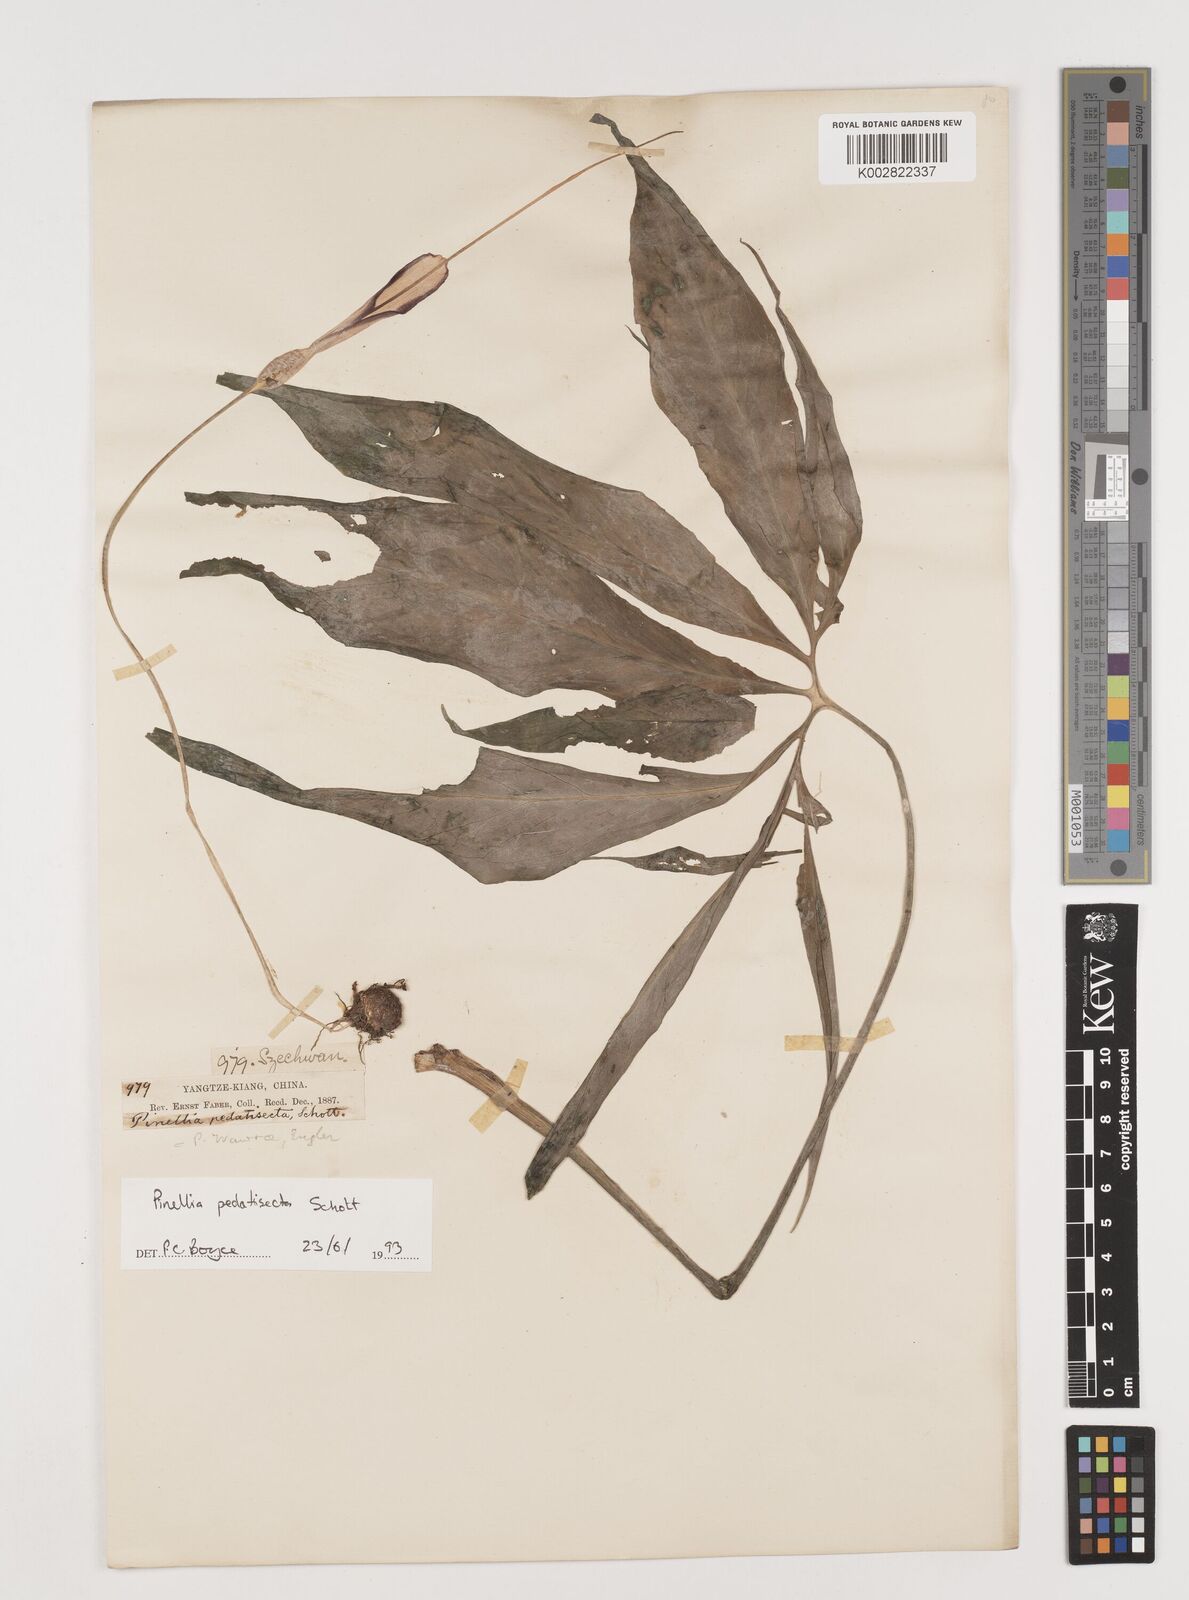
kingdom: Plantae
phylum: Tracheophyta
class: Liliopsida
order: Alismatales
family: Araceae
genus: Pinellia
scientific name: Pinellia pedatisecta
